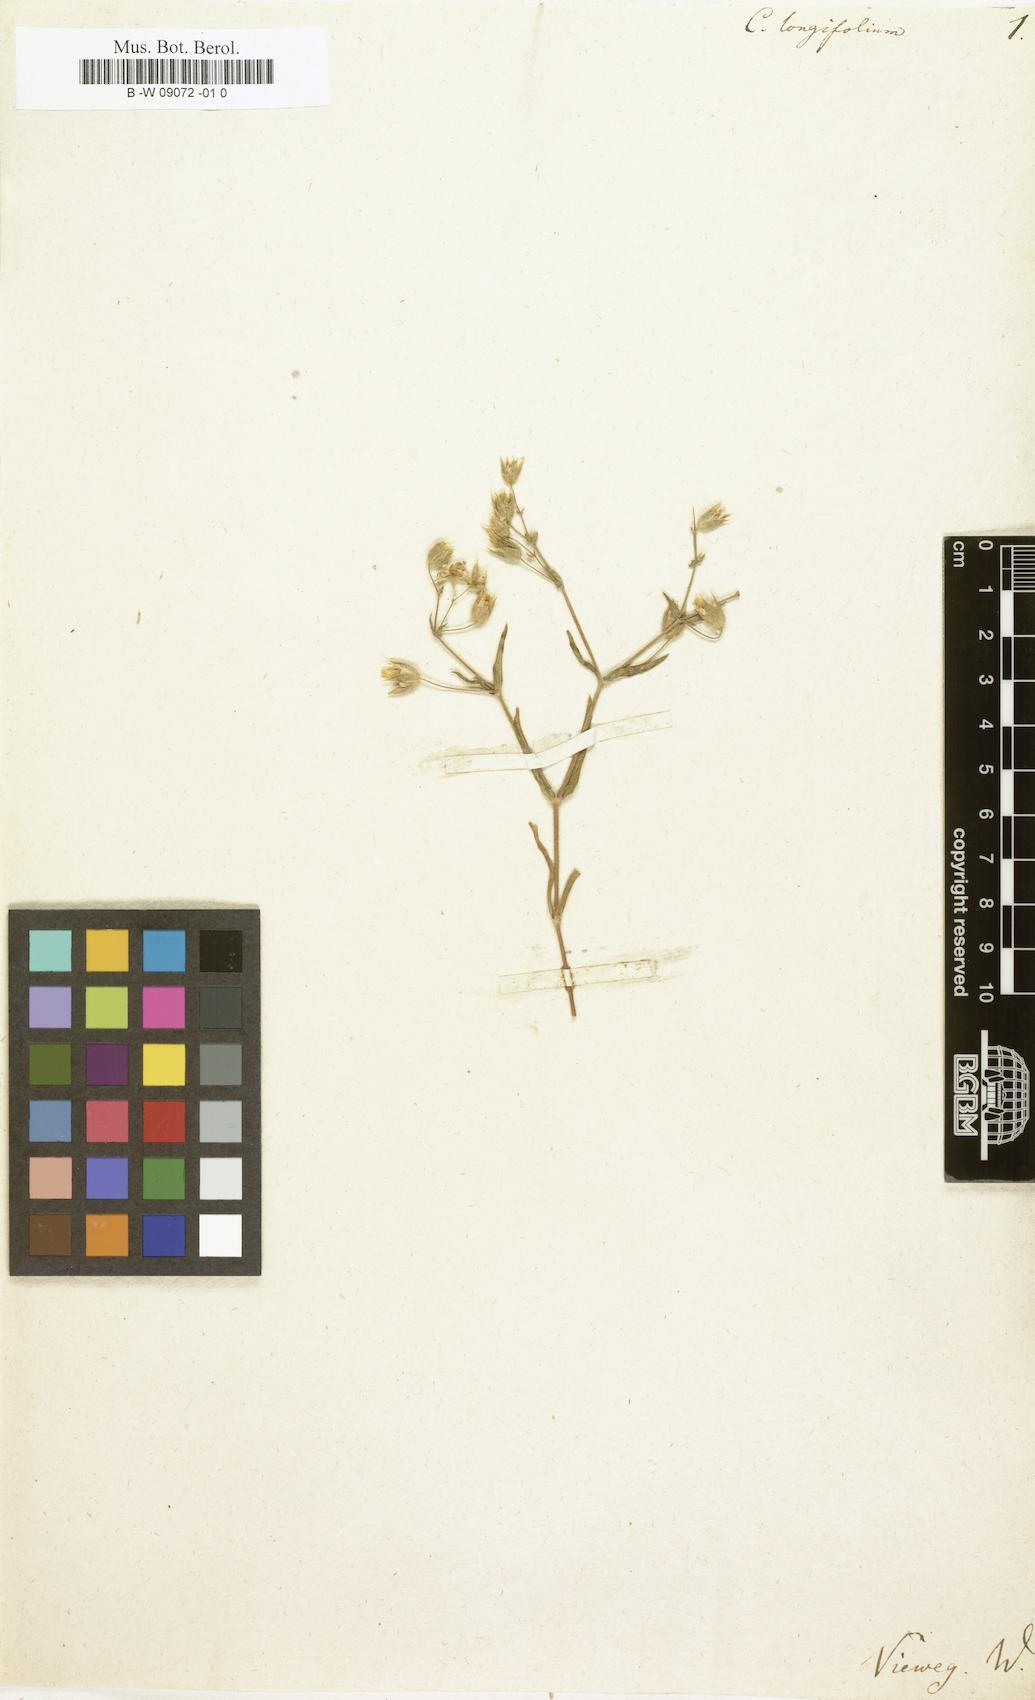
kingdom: Plantae
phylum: Tracheophyta
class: Magnoliopsida
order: Caryophyllales
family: Caryophyllaceae
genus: Cerastium
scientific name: Cerastium longifolium
